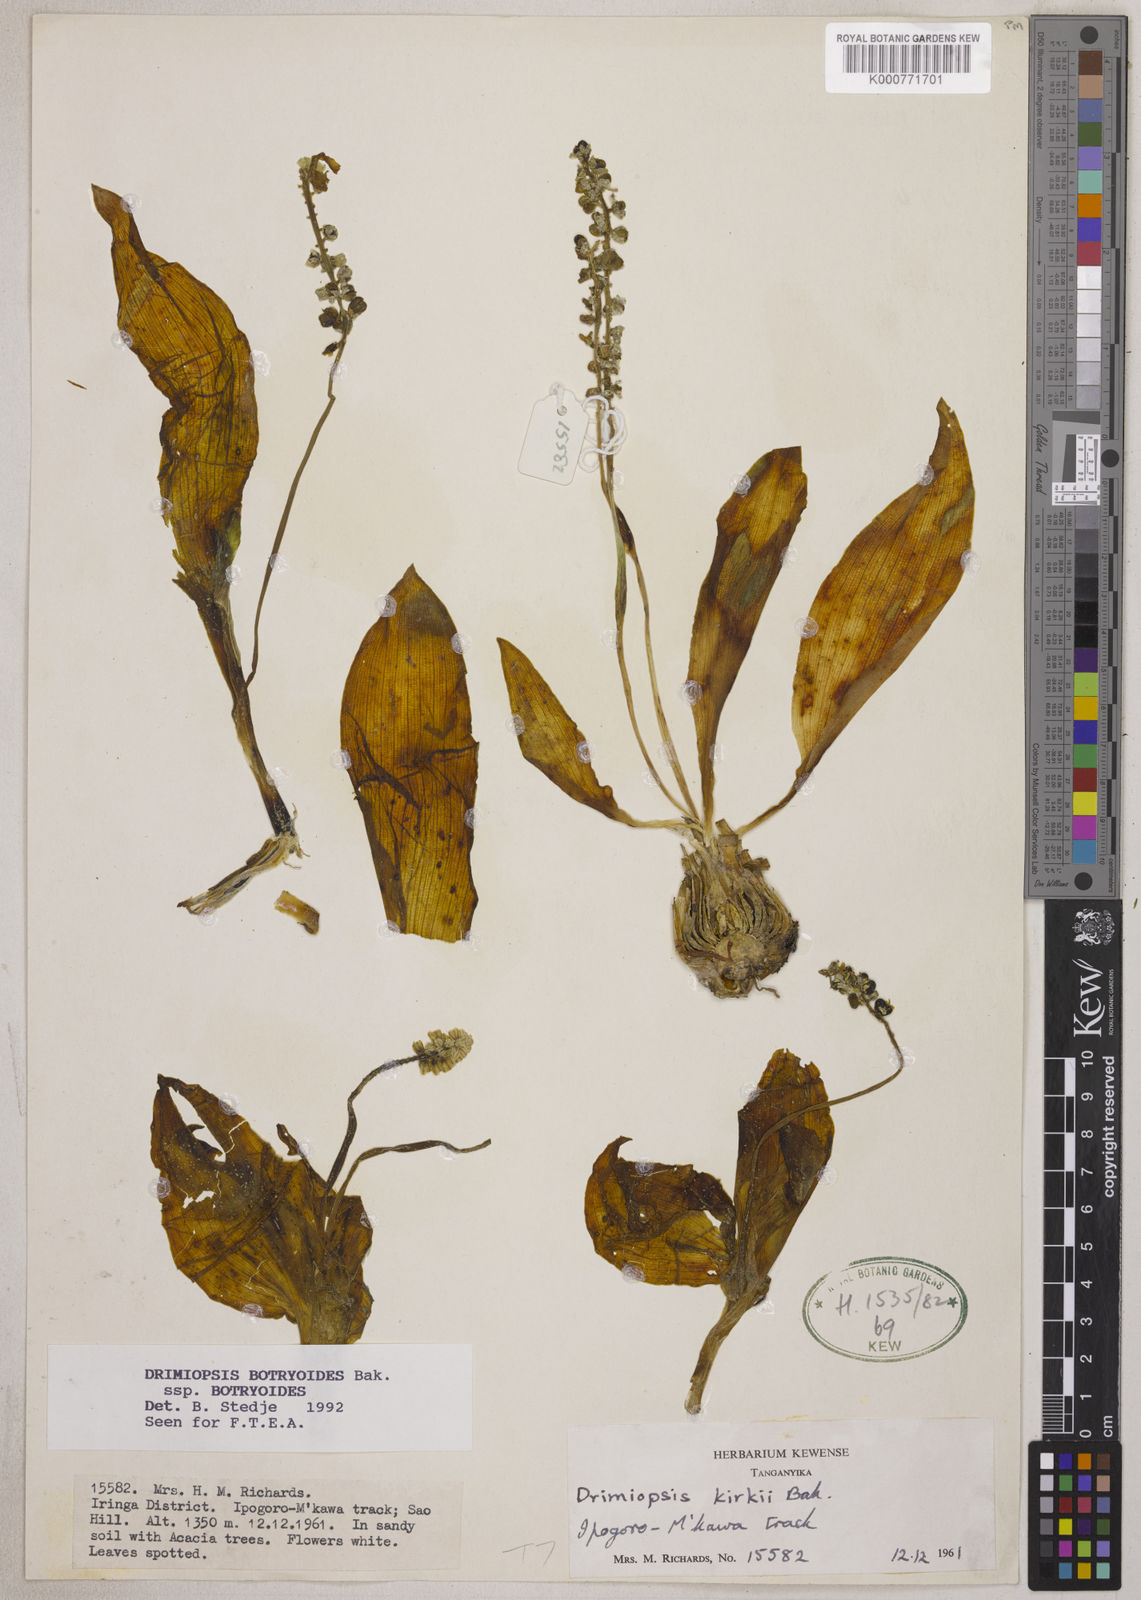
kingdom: Plantae
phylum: Tracheophyta
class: Liliopsida
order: Asparagales
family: Asparagaceae
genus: Drimiopsis
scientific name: Drimiopsis botryoides
